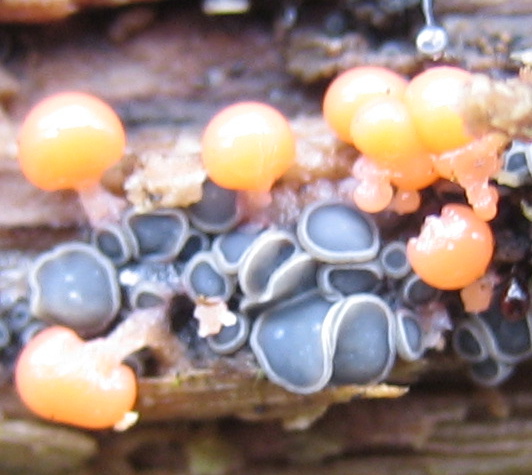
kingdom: Protozoa
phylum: Mycetozoa
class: Myxomycetes
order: Trichiales
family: Trichiaceae
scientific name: Trichiaceae
